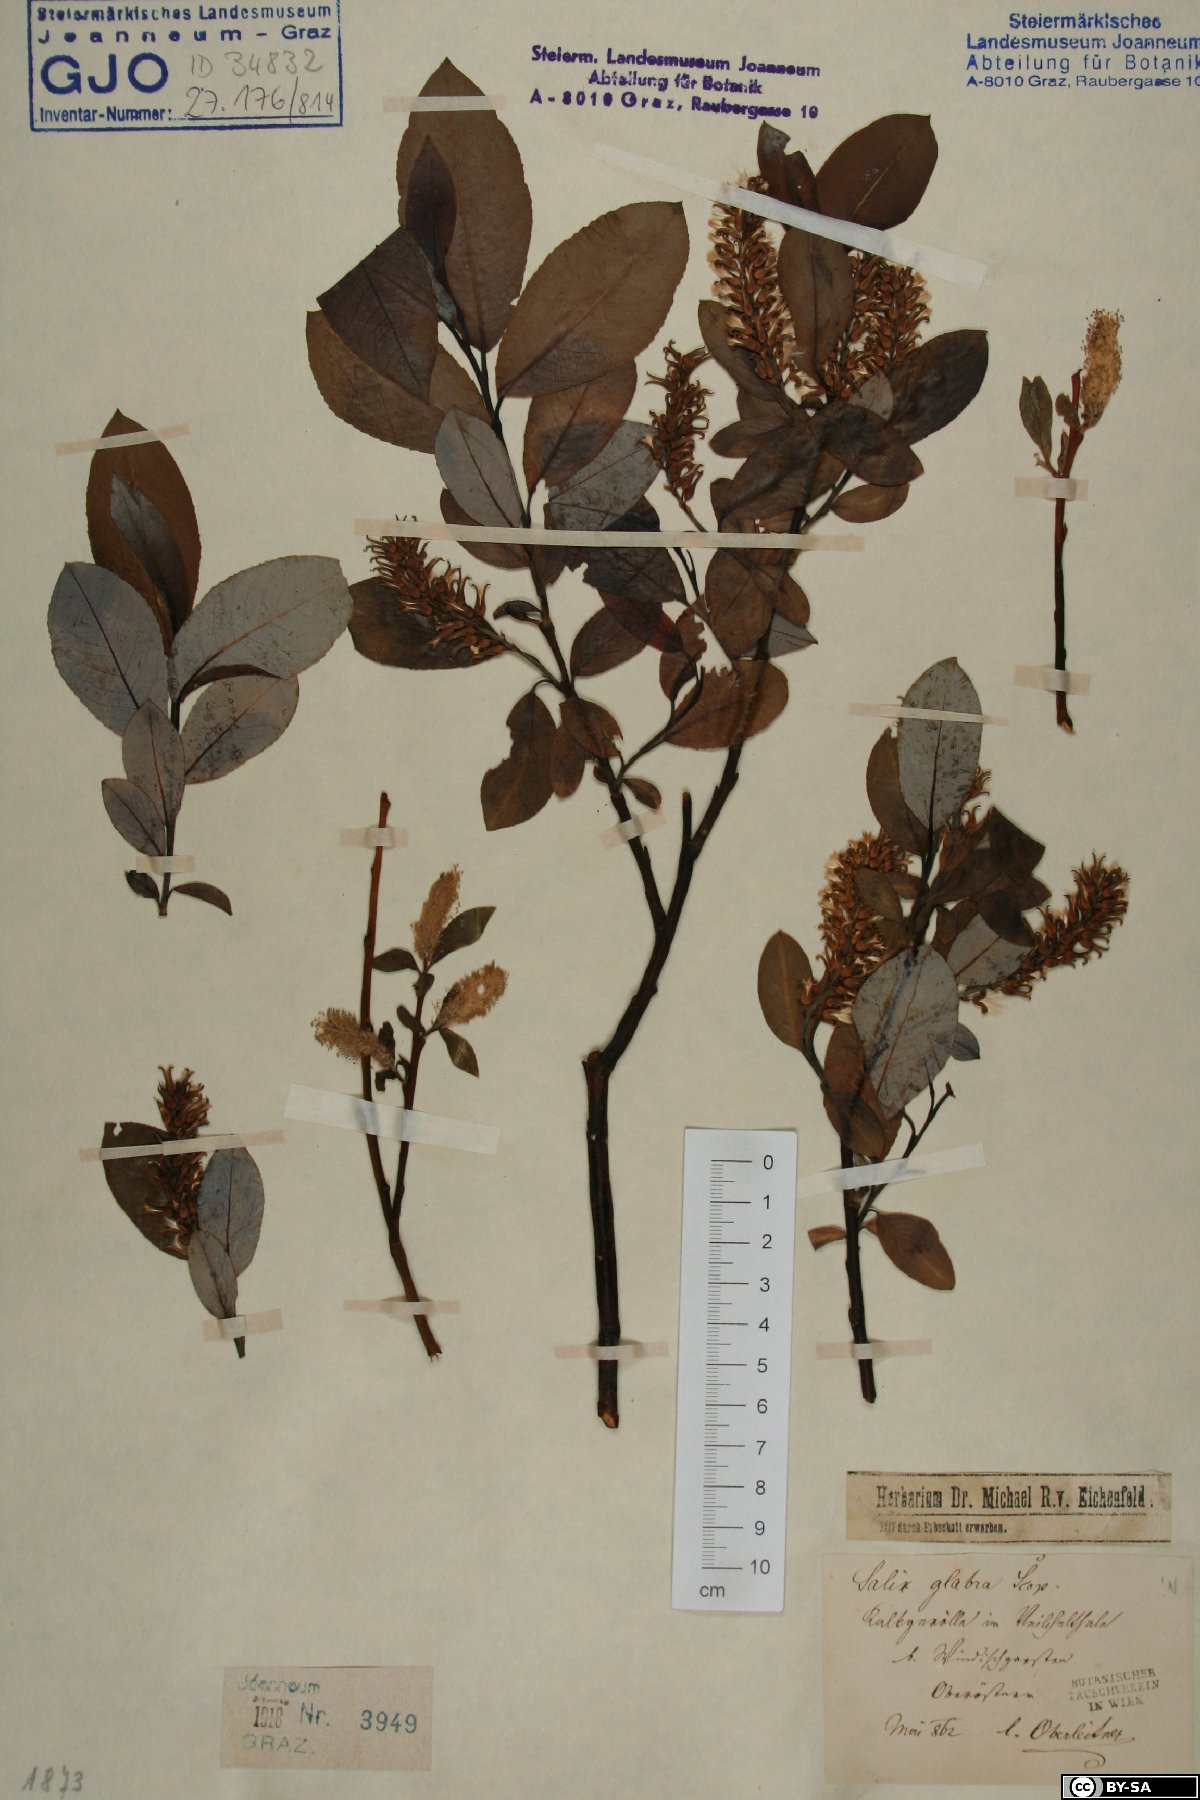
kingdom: Plantae
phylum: Tracheophyta
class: Magnoliopsida
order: Malpighiales
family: Salicaceae
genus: Salix
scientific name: Salix glabra
